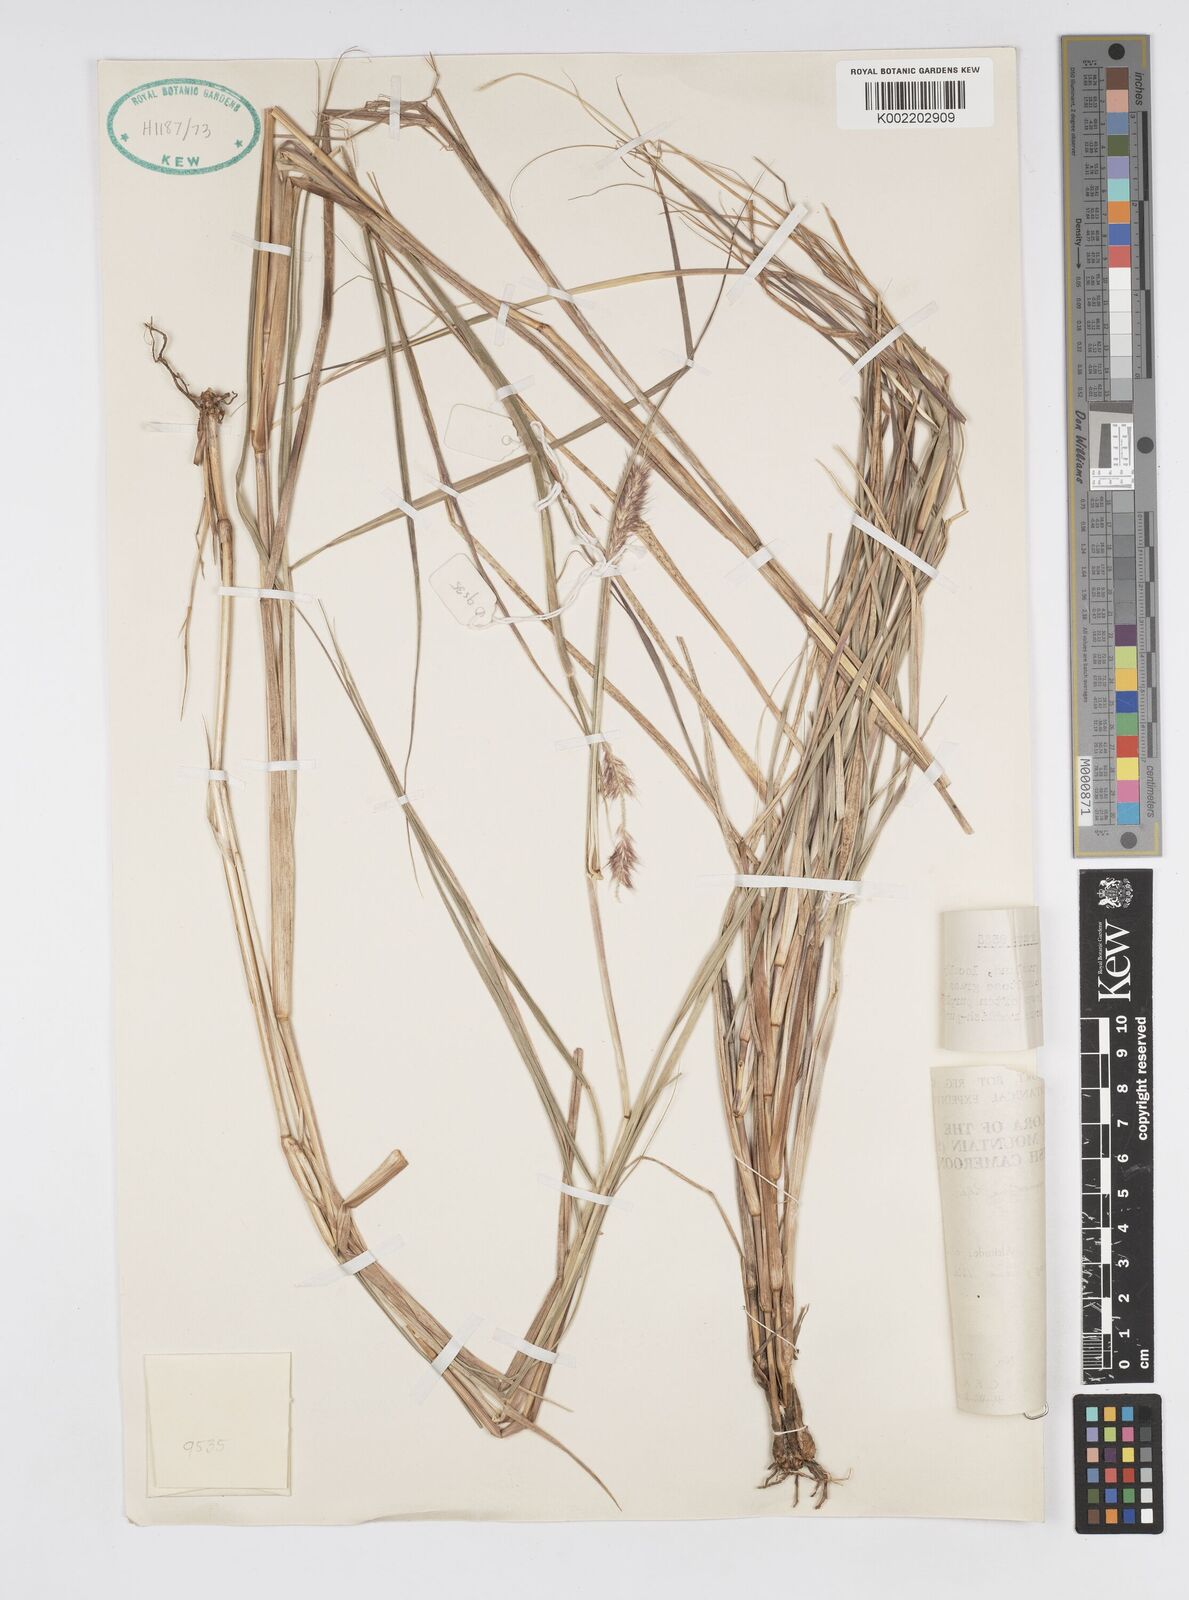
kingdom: Plantae
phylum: Tracheophyta
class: Liliopsida
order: Poales
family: Poaceae
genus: Cenchrus
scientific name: Cenchrus monostigma
